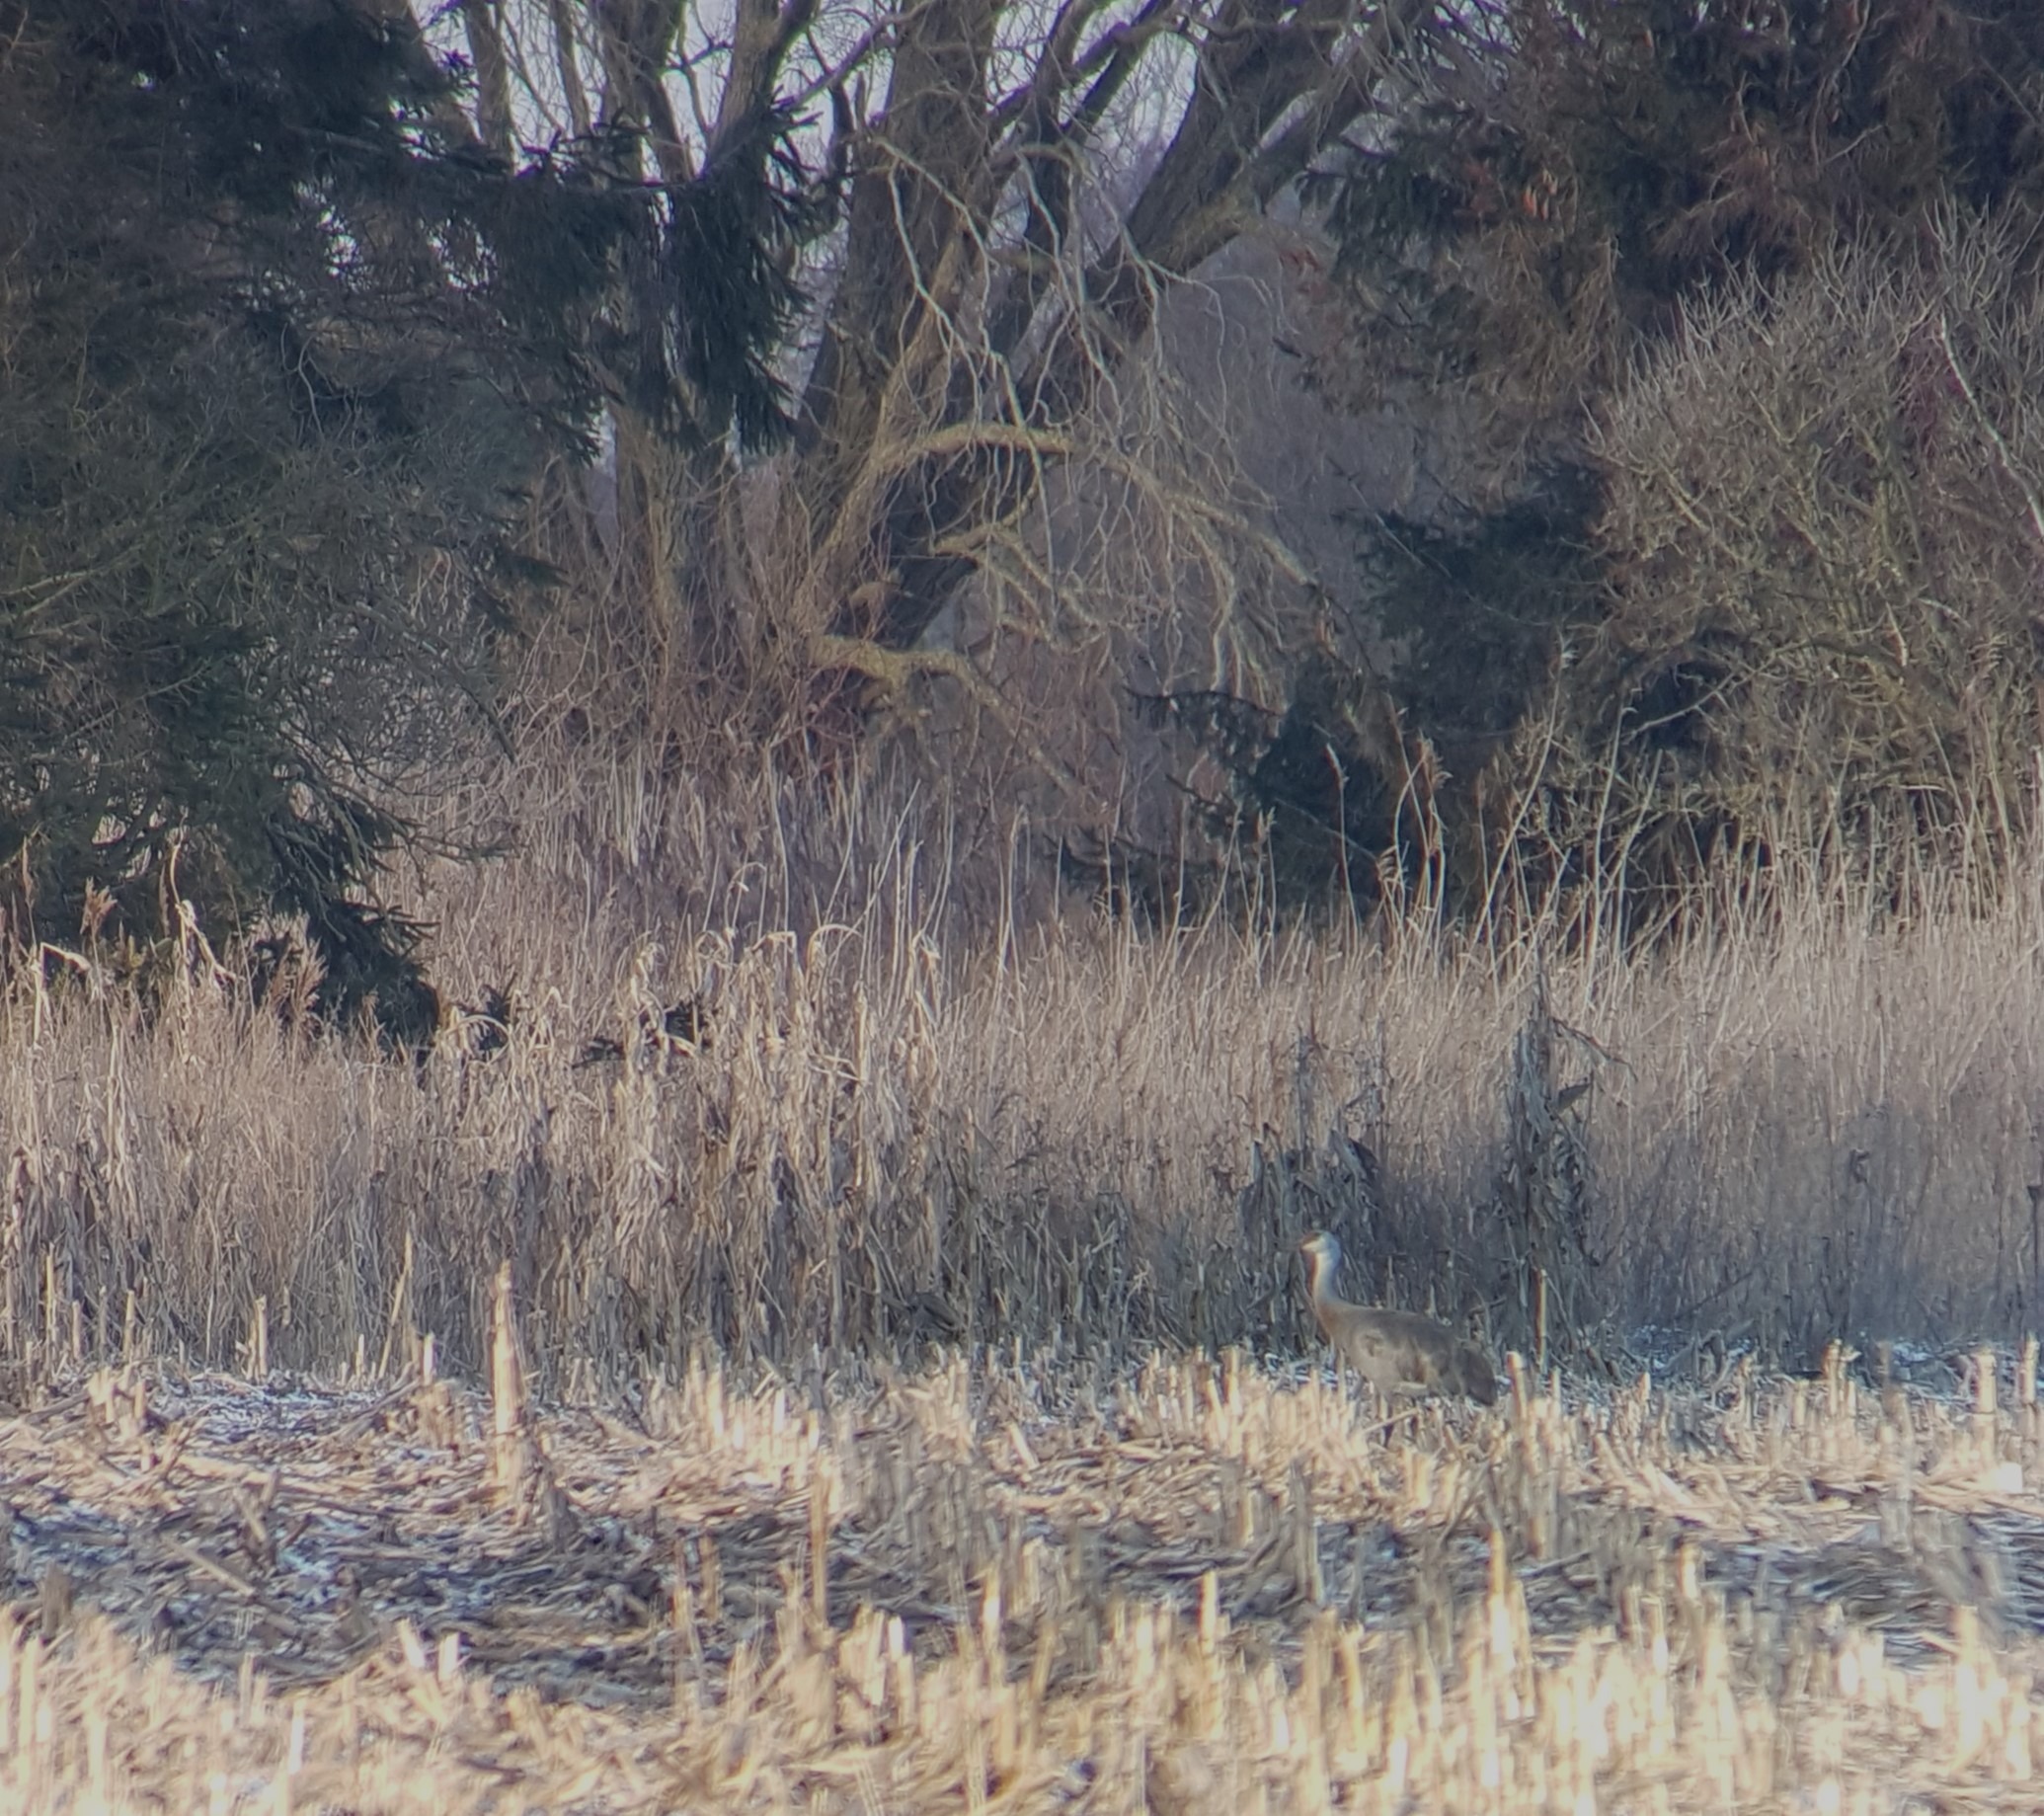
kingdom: Animalia
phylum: Chordata
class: Aves
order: Gruiformes
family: Gruidae
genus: Grus
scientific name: Grus canadensis
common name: Prærietrane
